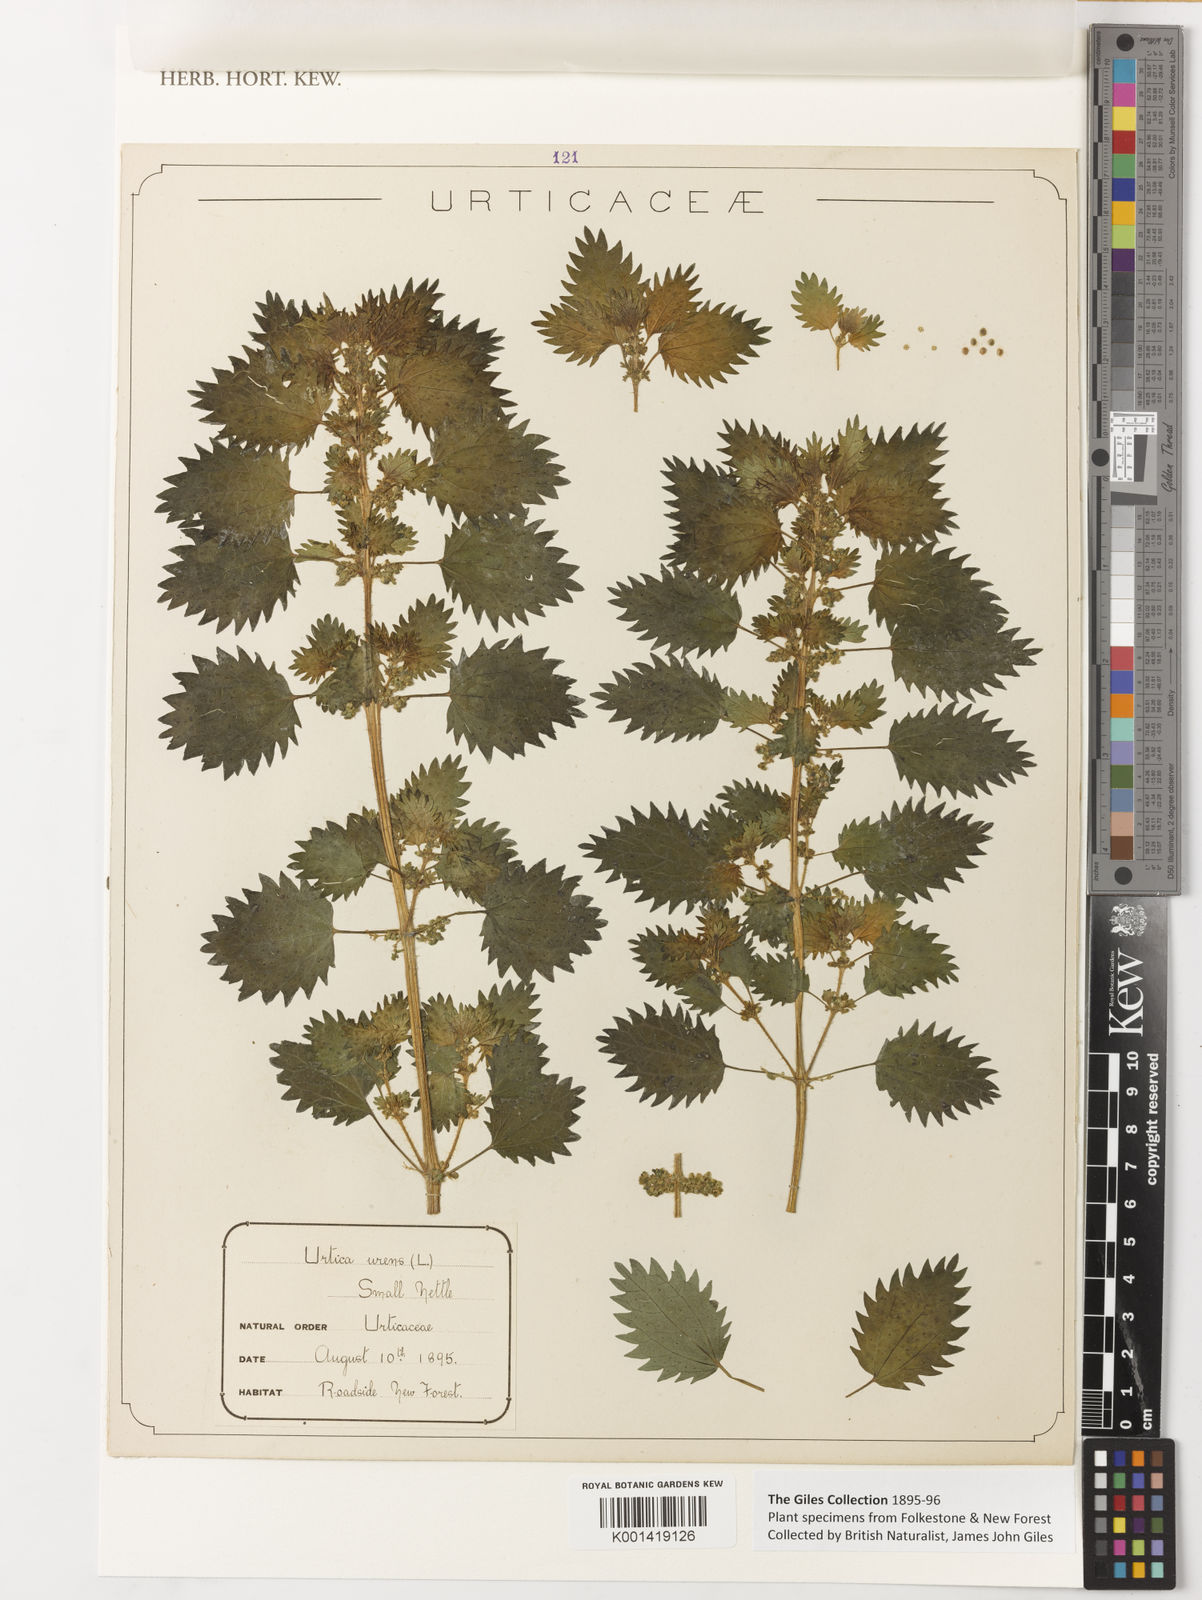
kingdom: Plantae
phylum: Tracheophyta
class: Magnoliopsida
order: Rosales
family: Urticaceae
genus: Urtica
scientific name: Urtica urens
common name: Dwarf nettle
